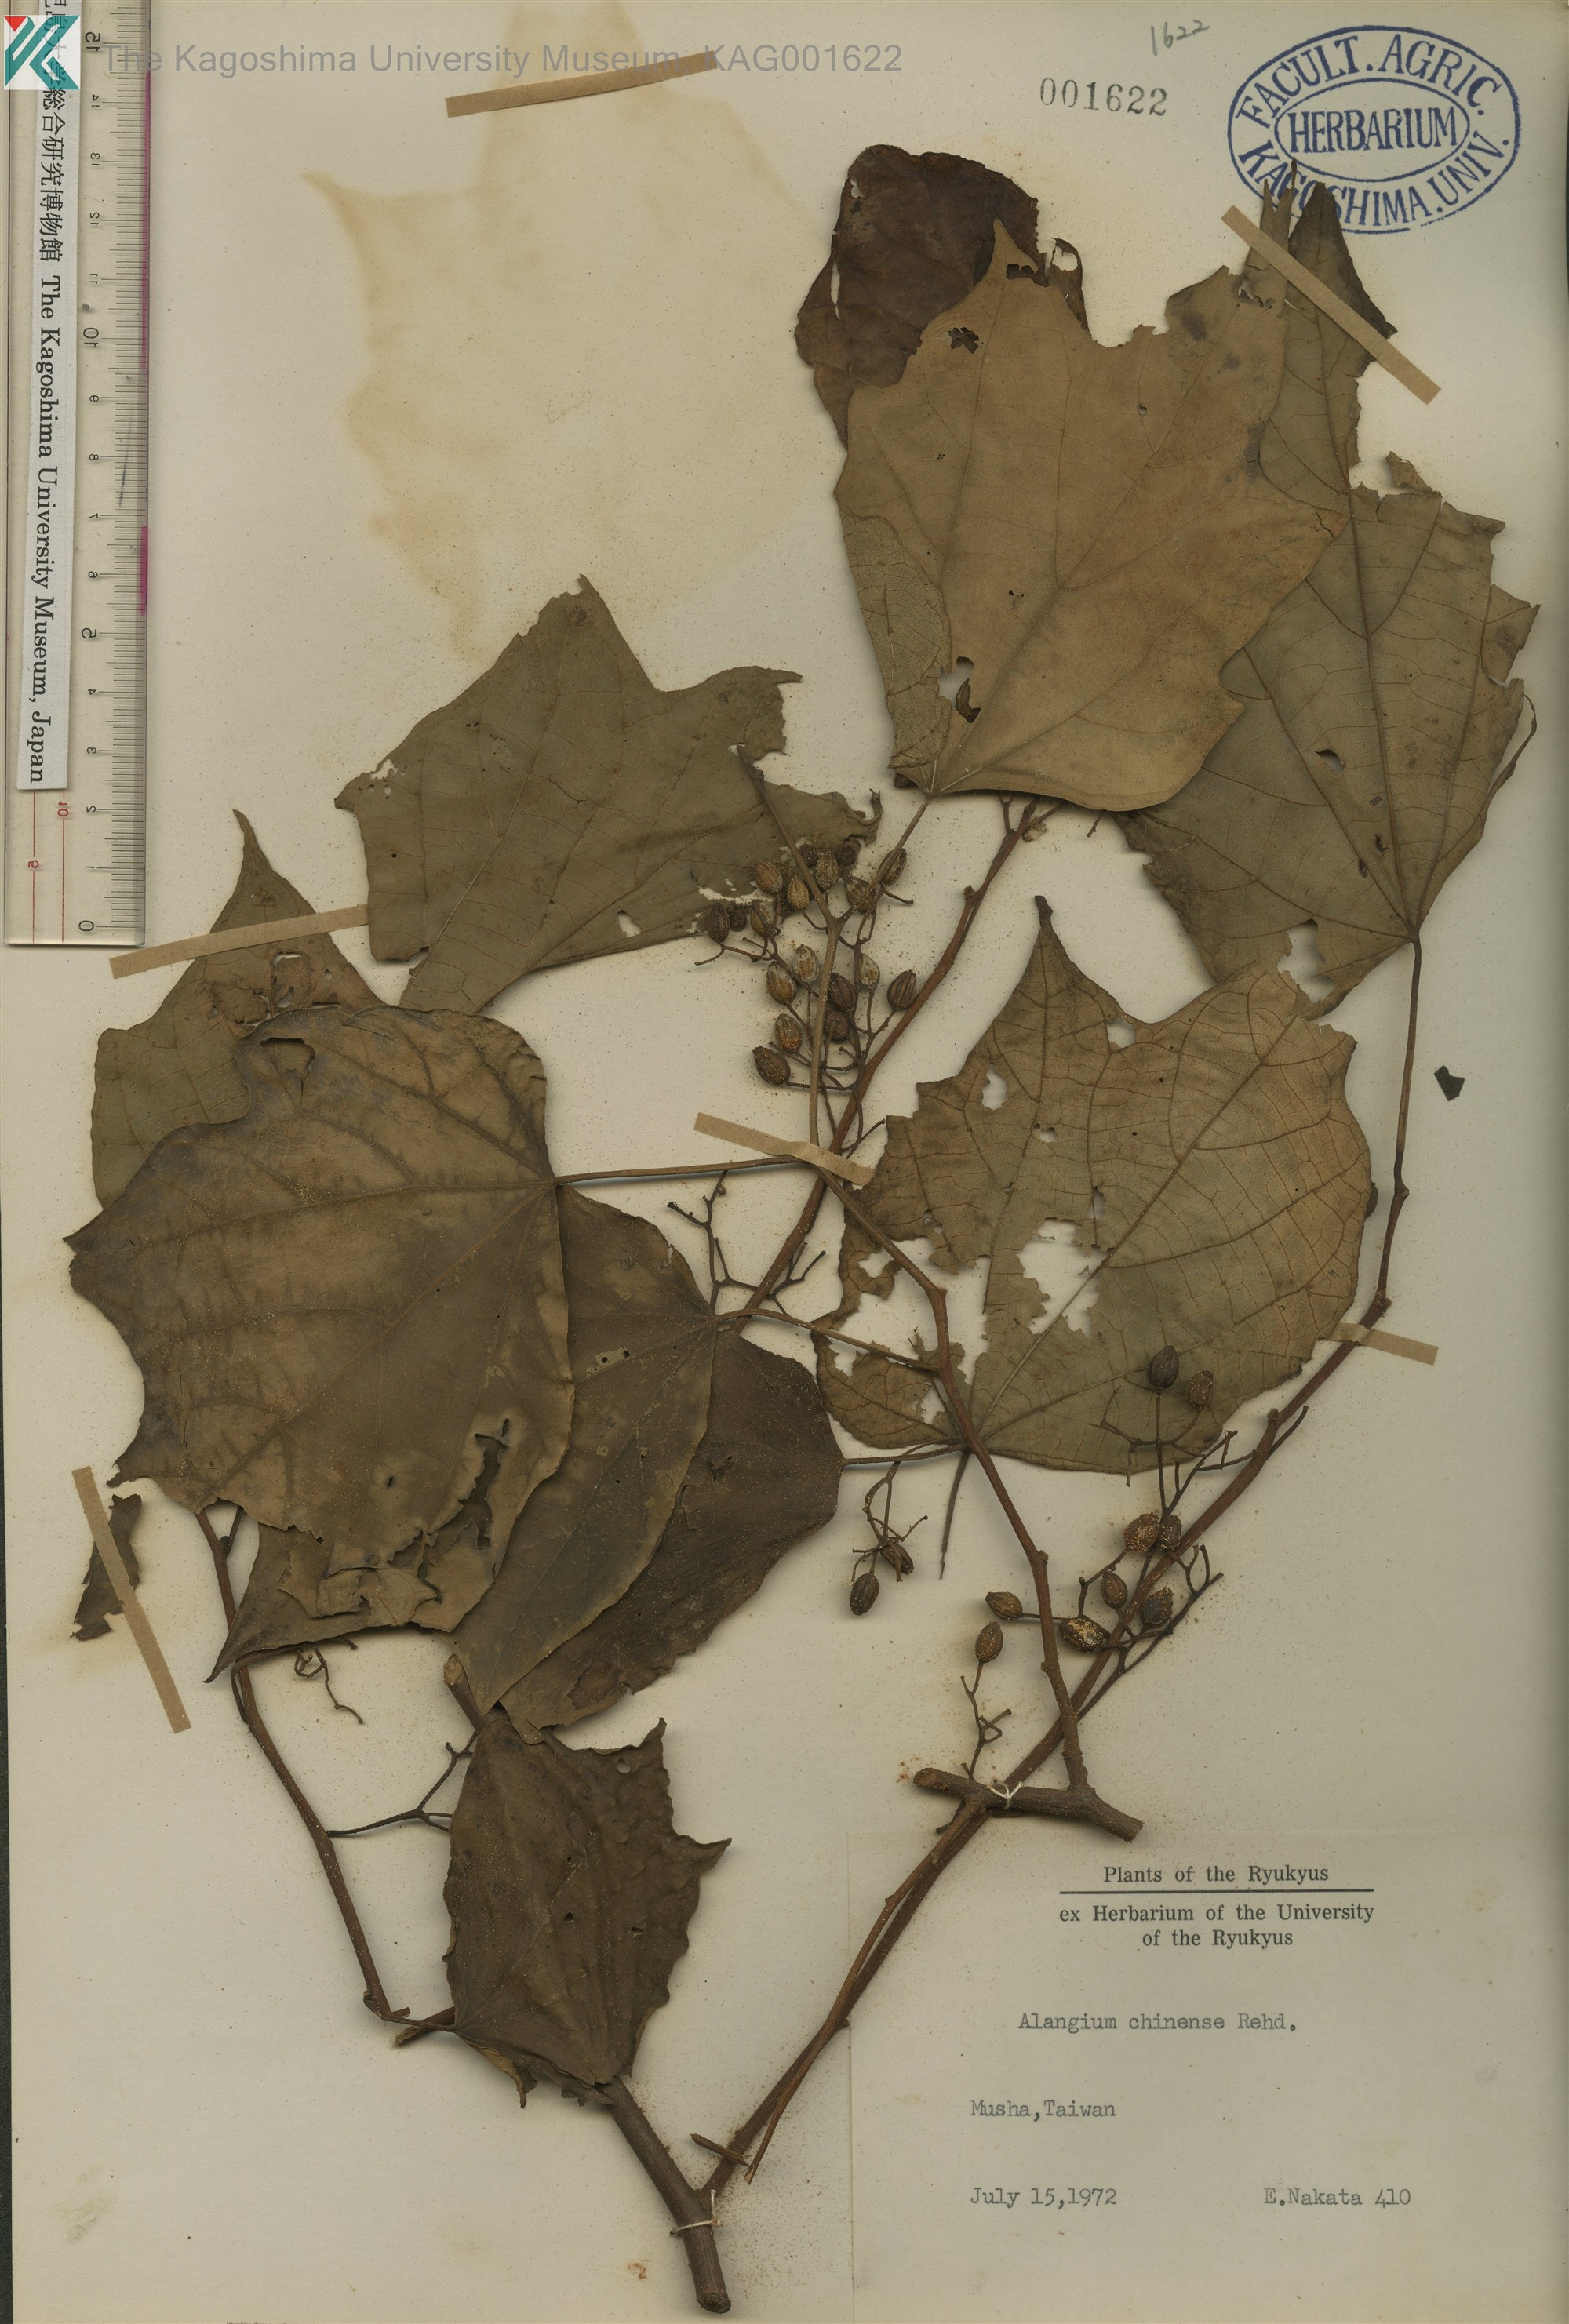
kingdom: Plantae
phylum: Tracheophyta
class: Magnoliopsida
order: Cornales
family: Cornaceae
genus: Alangium
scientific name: Alangium chinense
